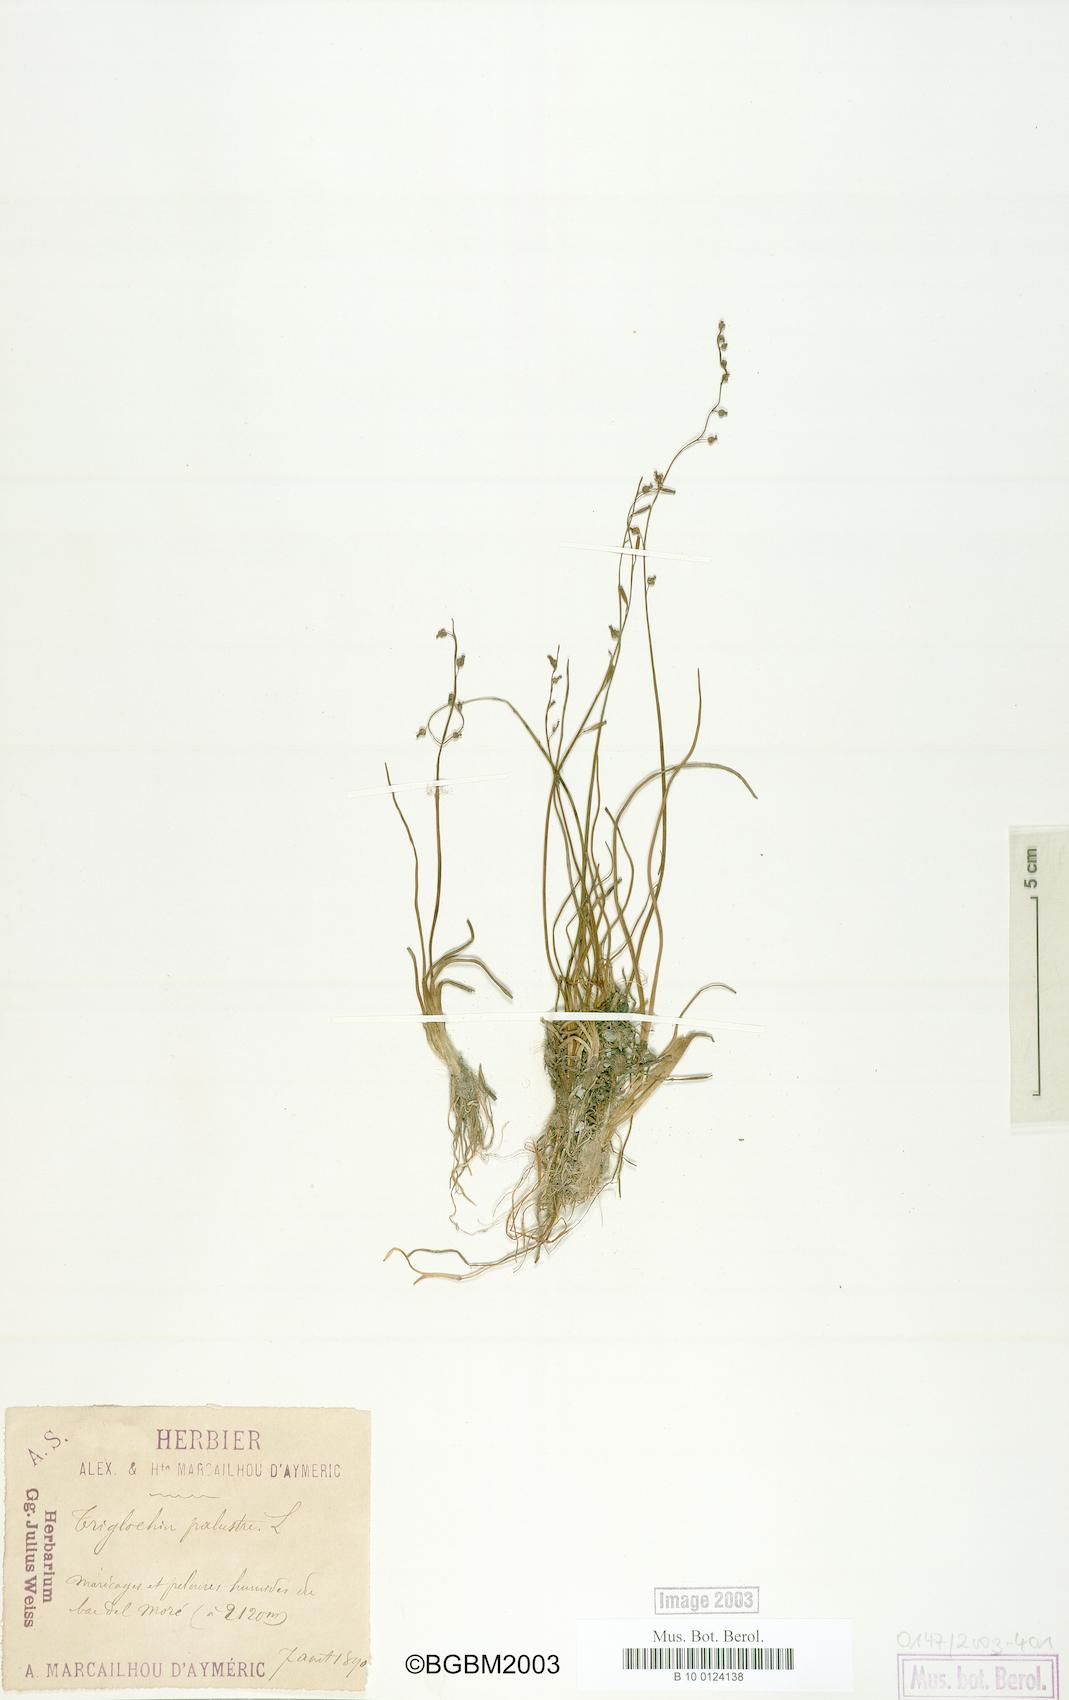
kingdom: Plantae
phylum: Tracheophyta
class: Liliopsida
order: Alismatales
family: Juncaginaceae
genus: Triglochin
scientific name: Triglochin palustris
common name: Marsh arrowgrass
